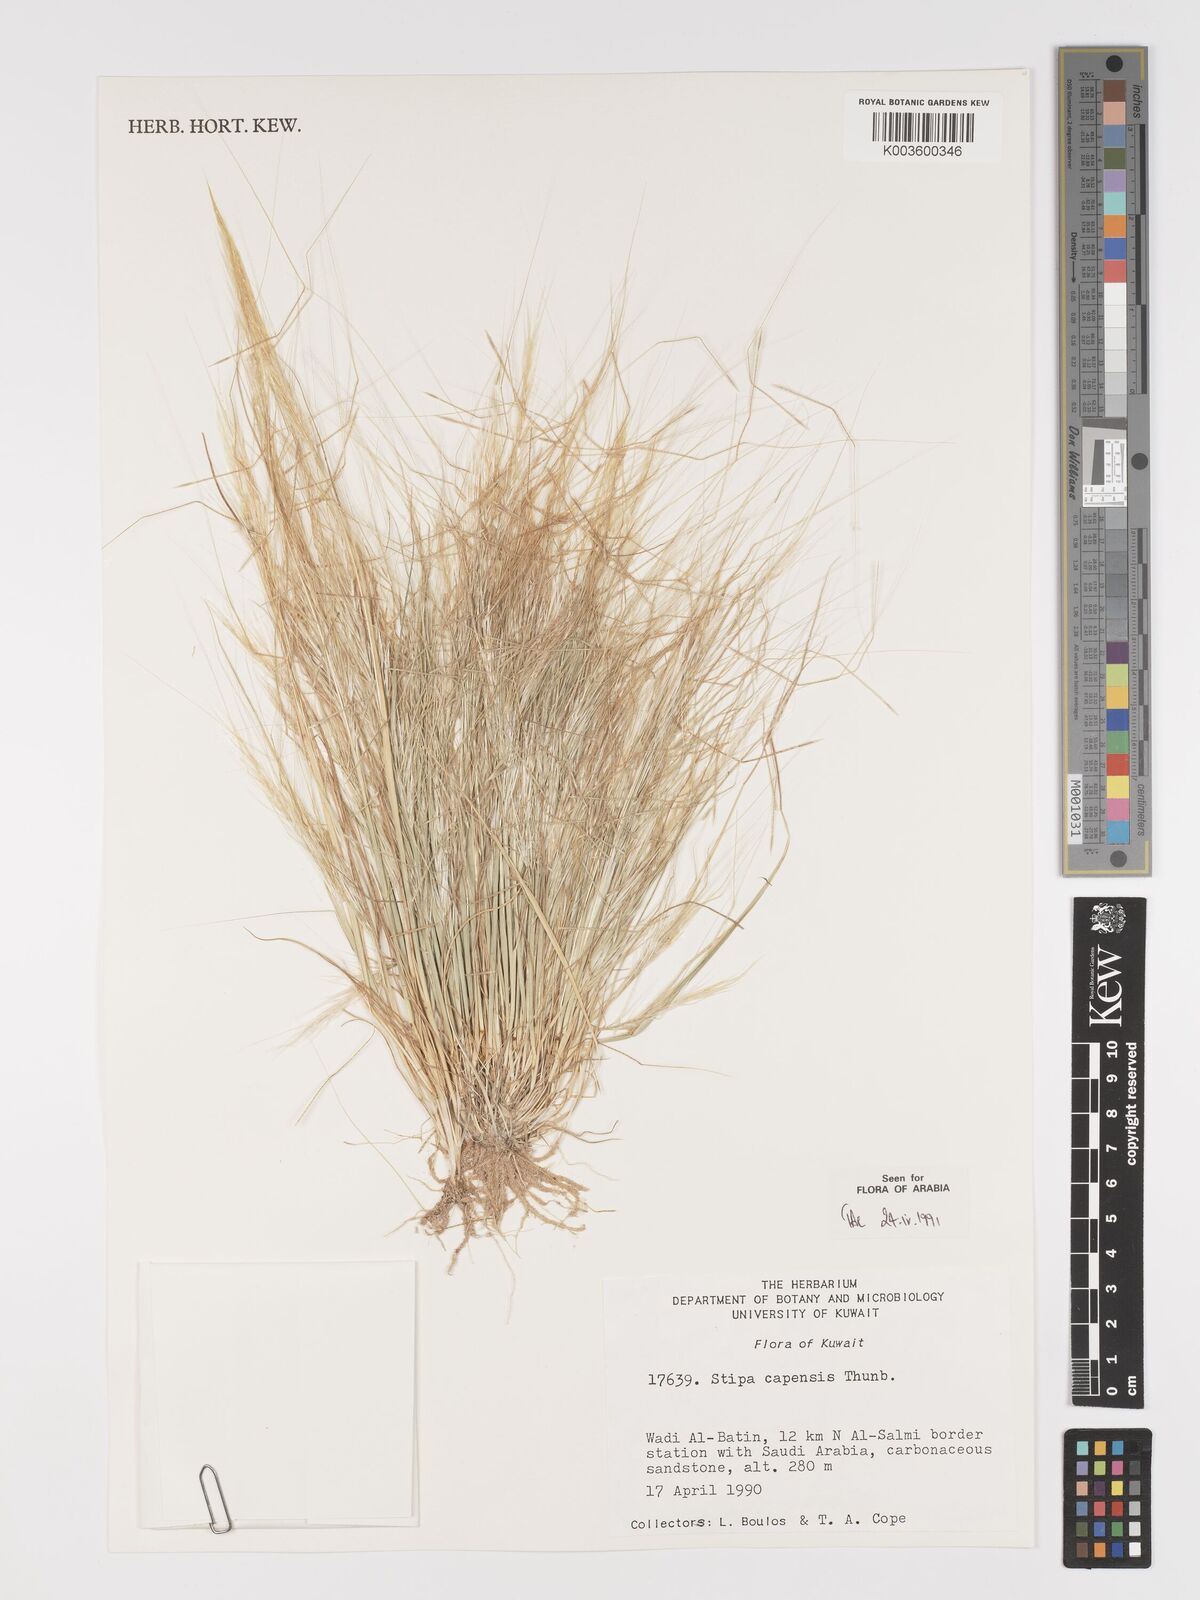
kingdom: Plantae
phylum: Tracheophyta
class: Liliopsida
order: Poales
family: Poaceae
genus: Stipellula
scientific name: Stipellula capensis
